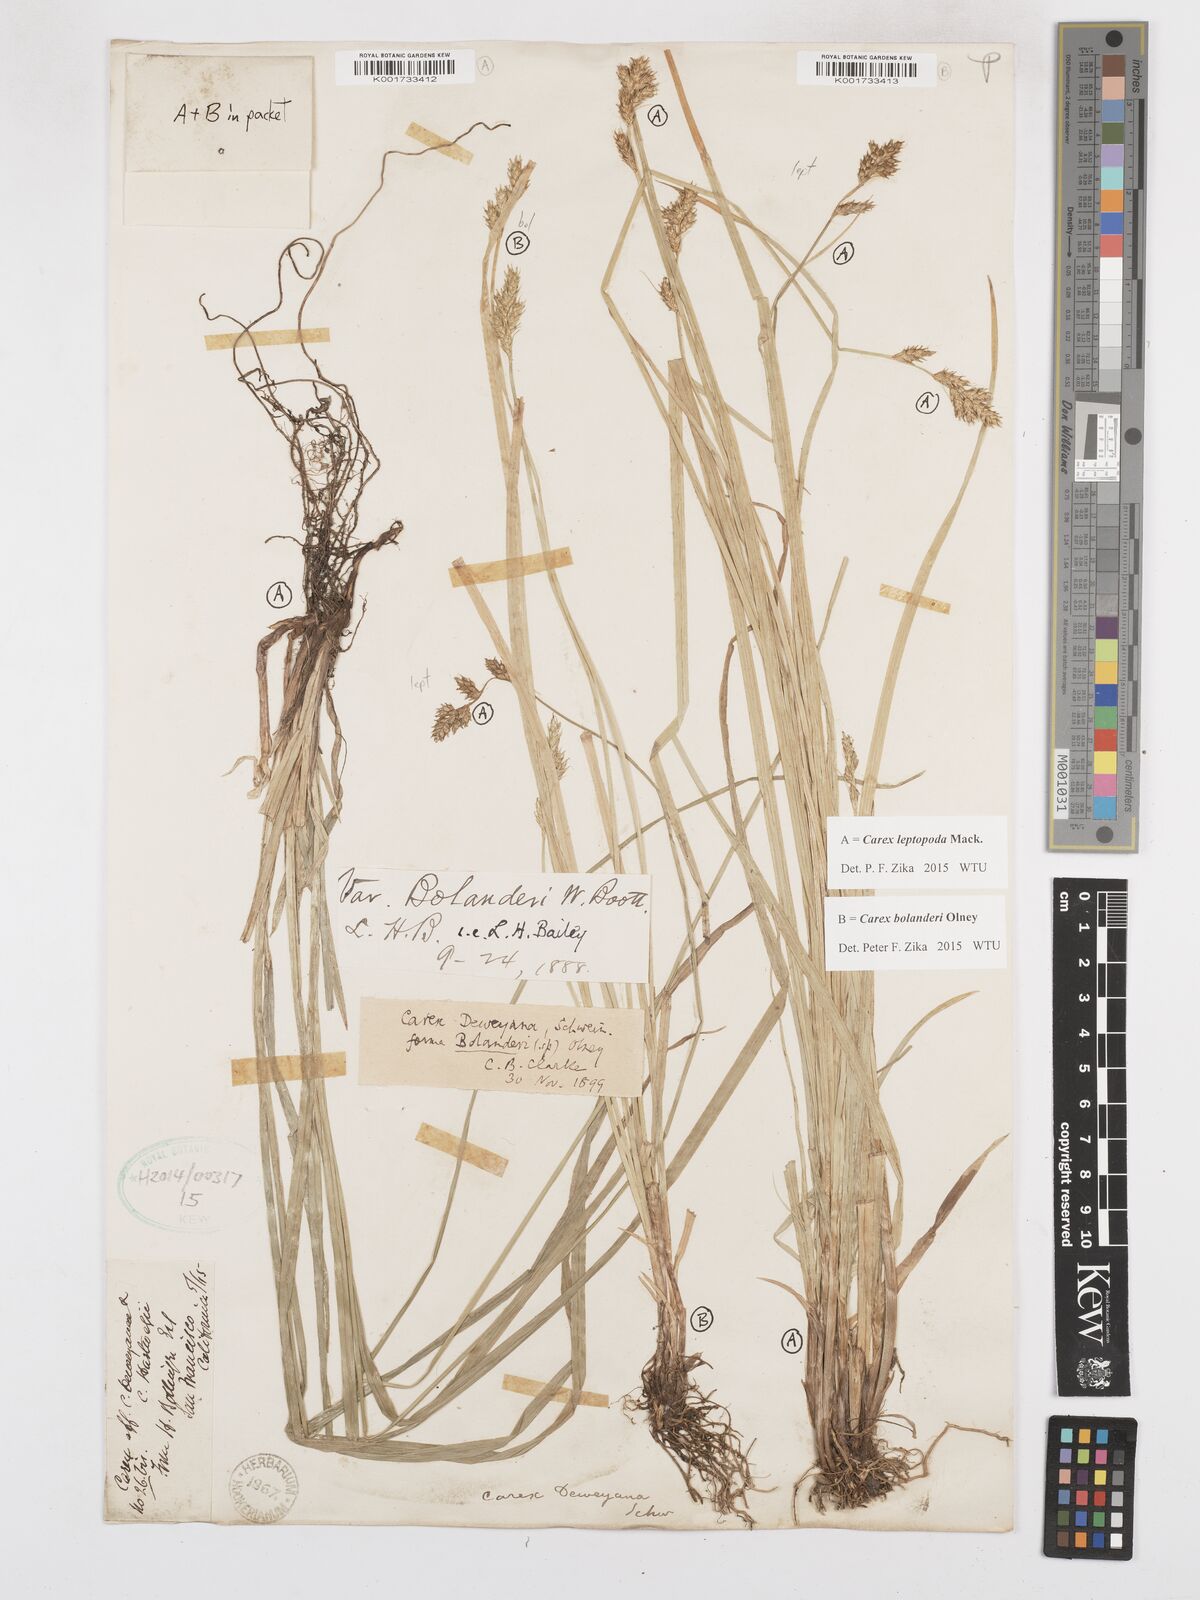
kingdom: Plantae
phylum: Tracheophyta
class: Liliopsida
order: Poales
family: Cyperaceae
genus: Carex
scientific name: Carex leptopoda
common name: Short-scale sedge
